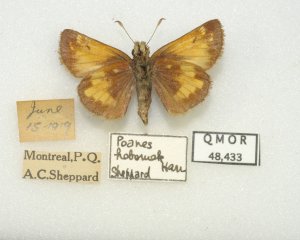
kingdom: Animalia
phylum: Arthropoda
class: Insecta
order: Lepidoptera
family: Hesperiidae
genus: Lon
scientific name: Lon hobomok
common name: Hobomok Skipper
